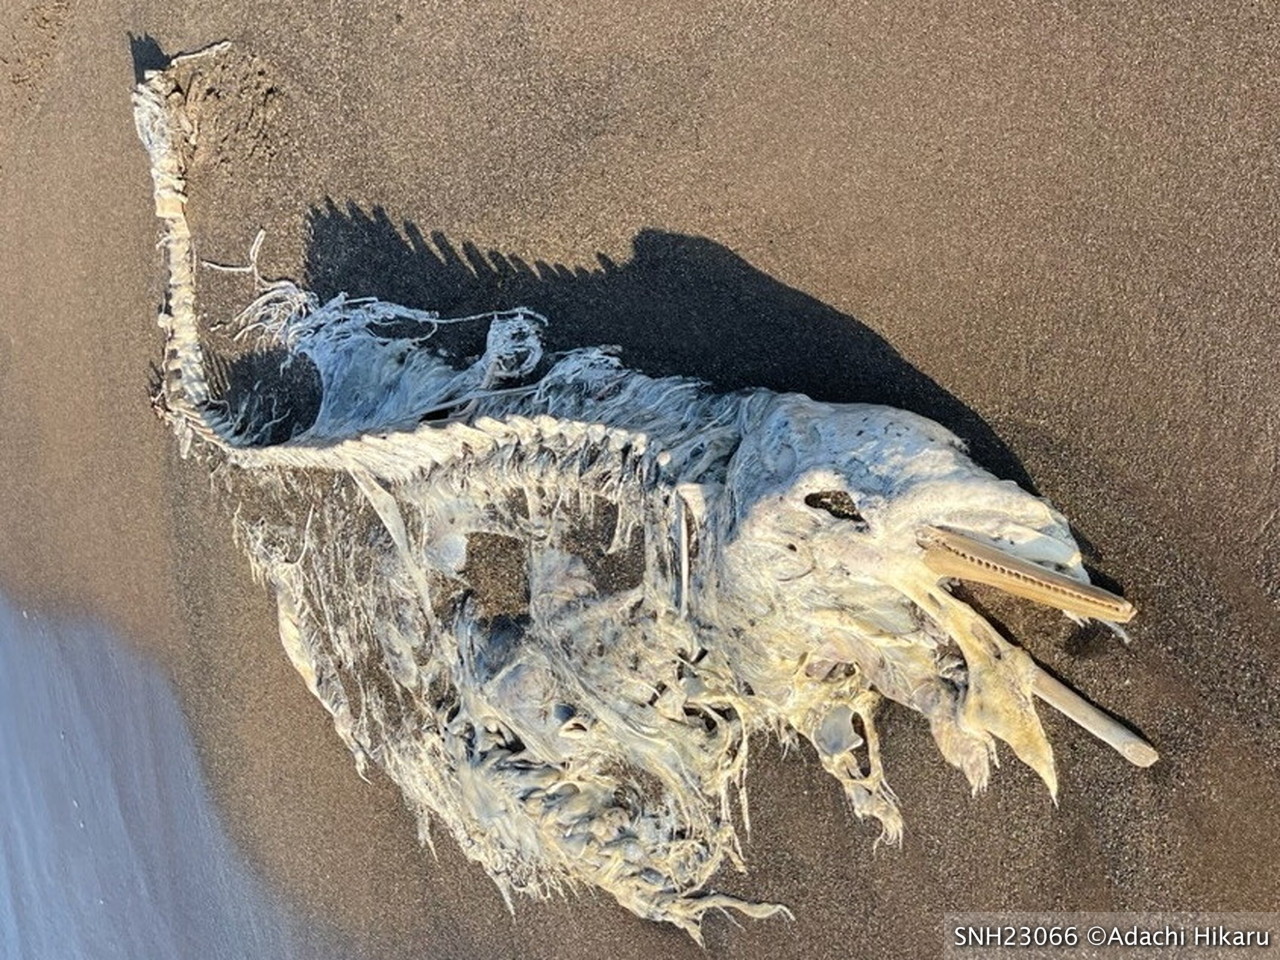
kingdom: Animalia
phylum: Chordata
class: Mammalia
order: Cetacea
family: Delphinidae
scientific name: Delphinidae
